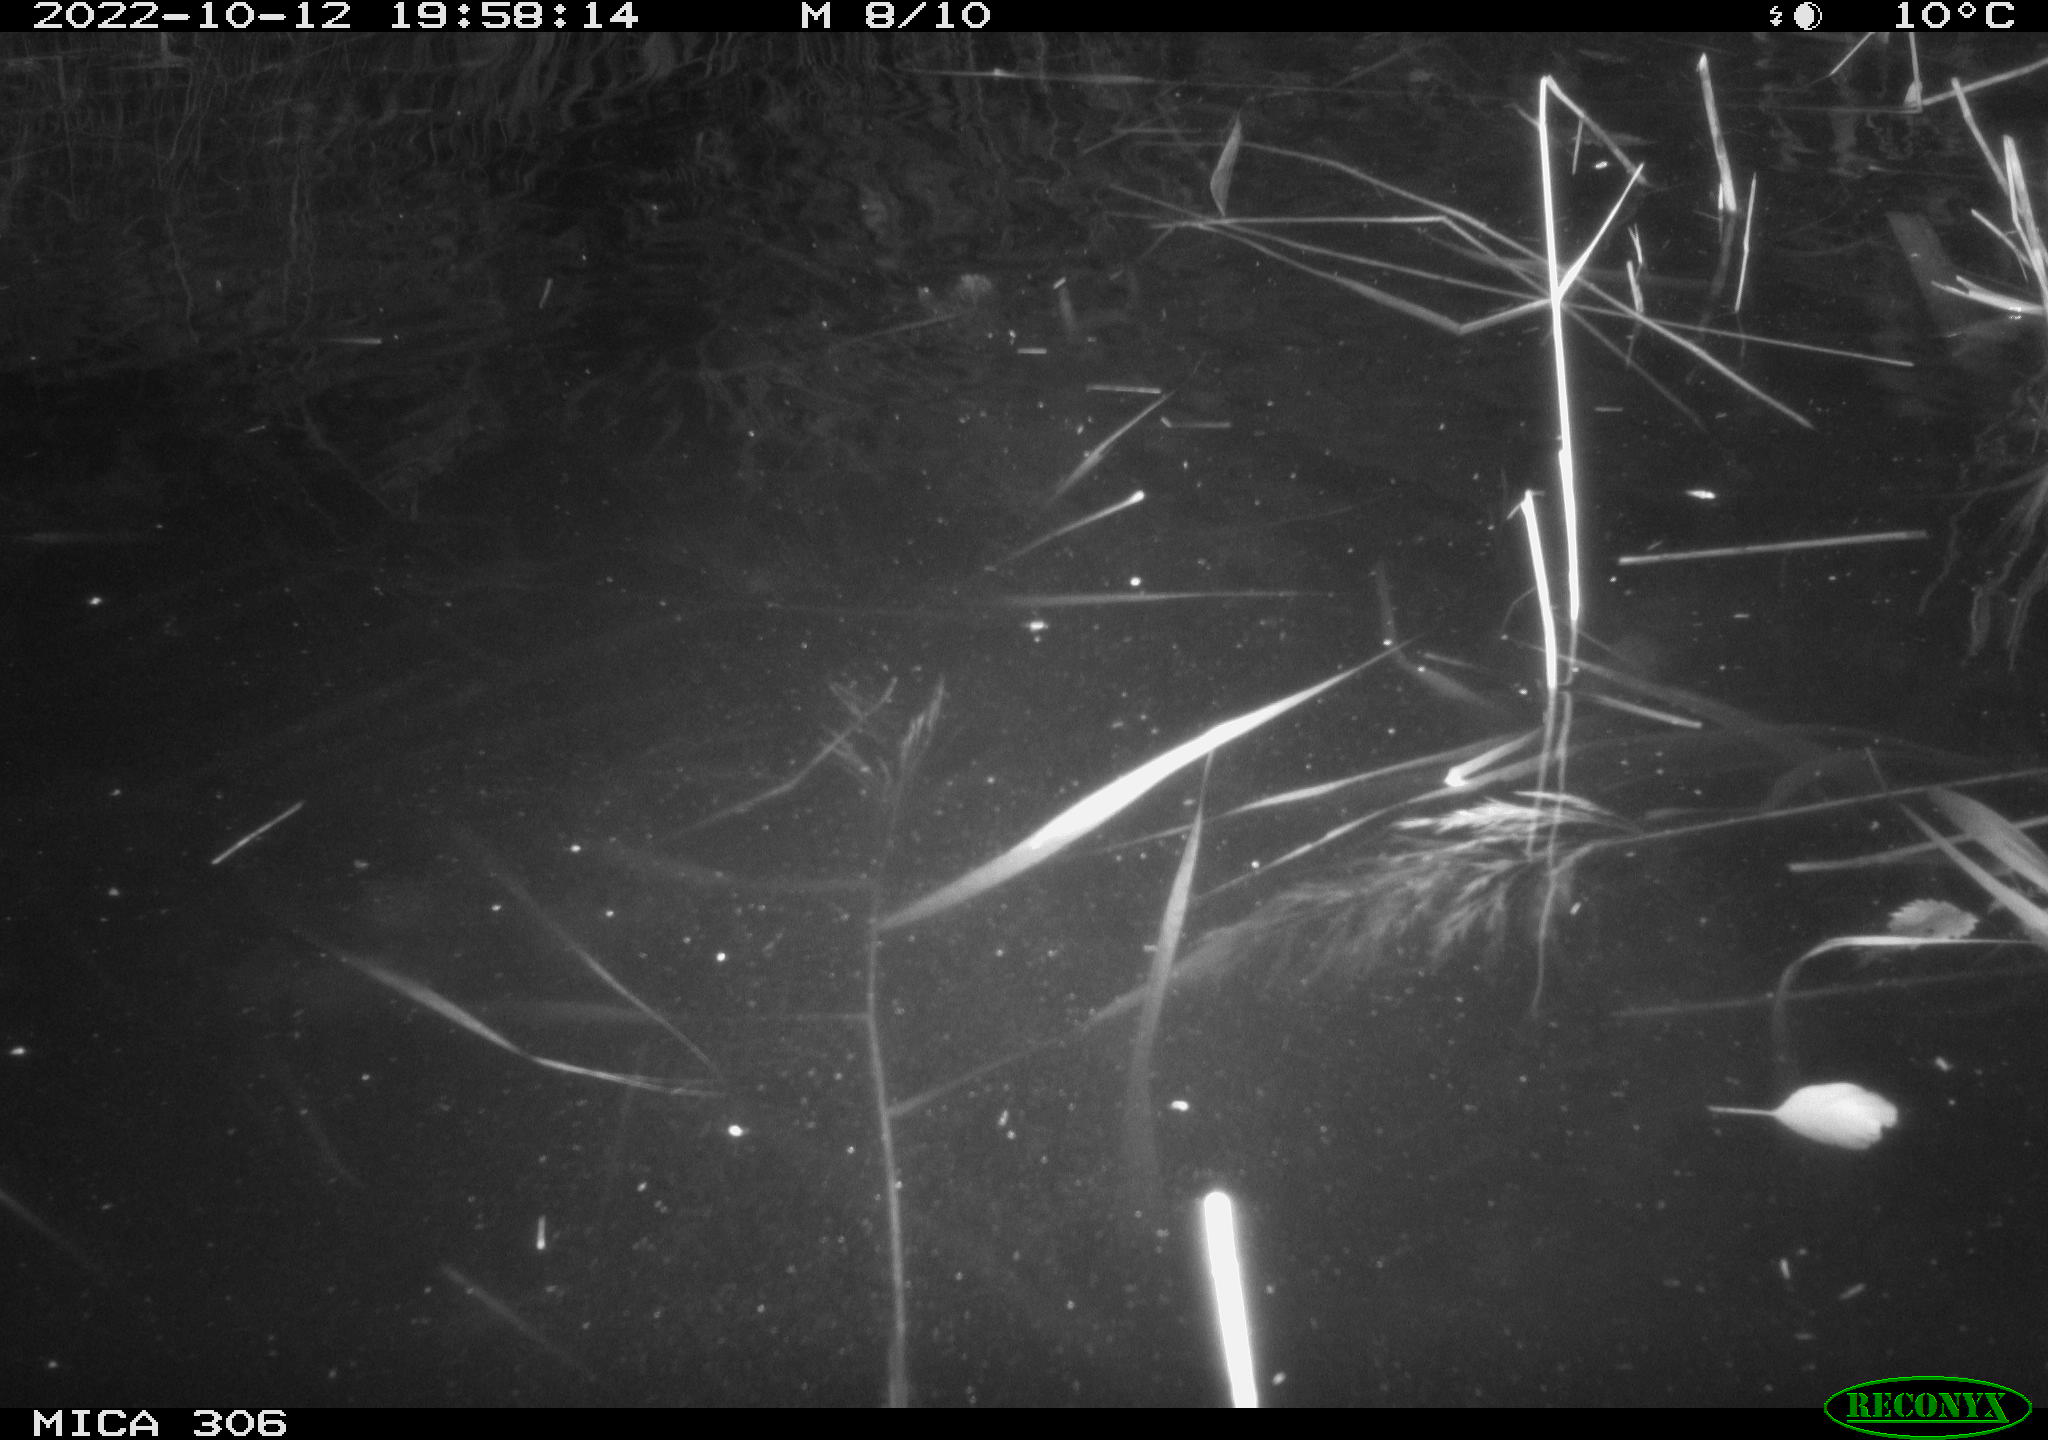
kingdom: Animalia
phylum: Chordata
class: Mammalia
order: Rodentia
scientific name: Rodentia
